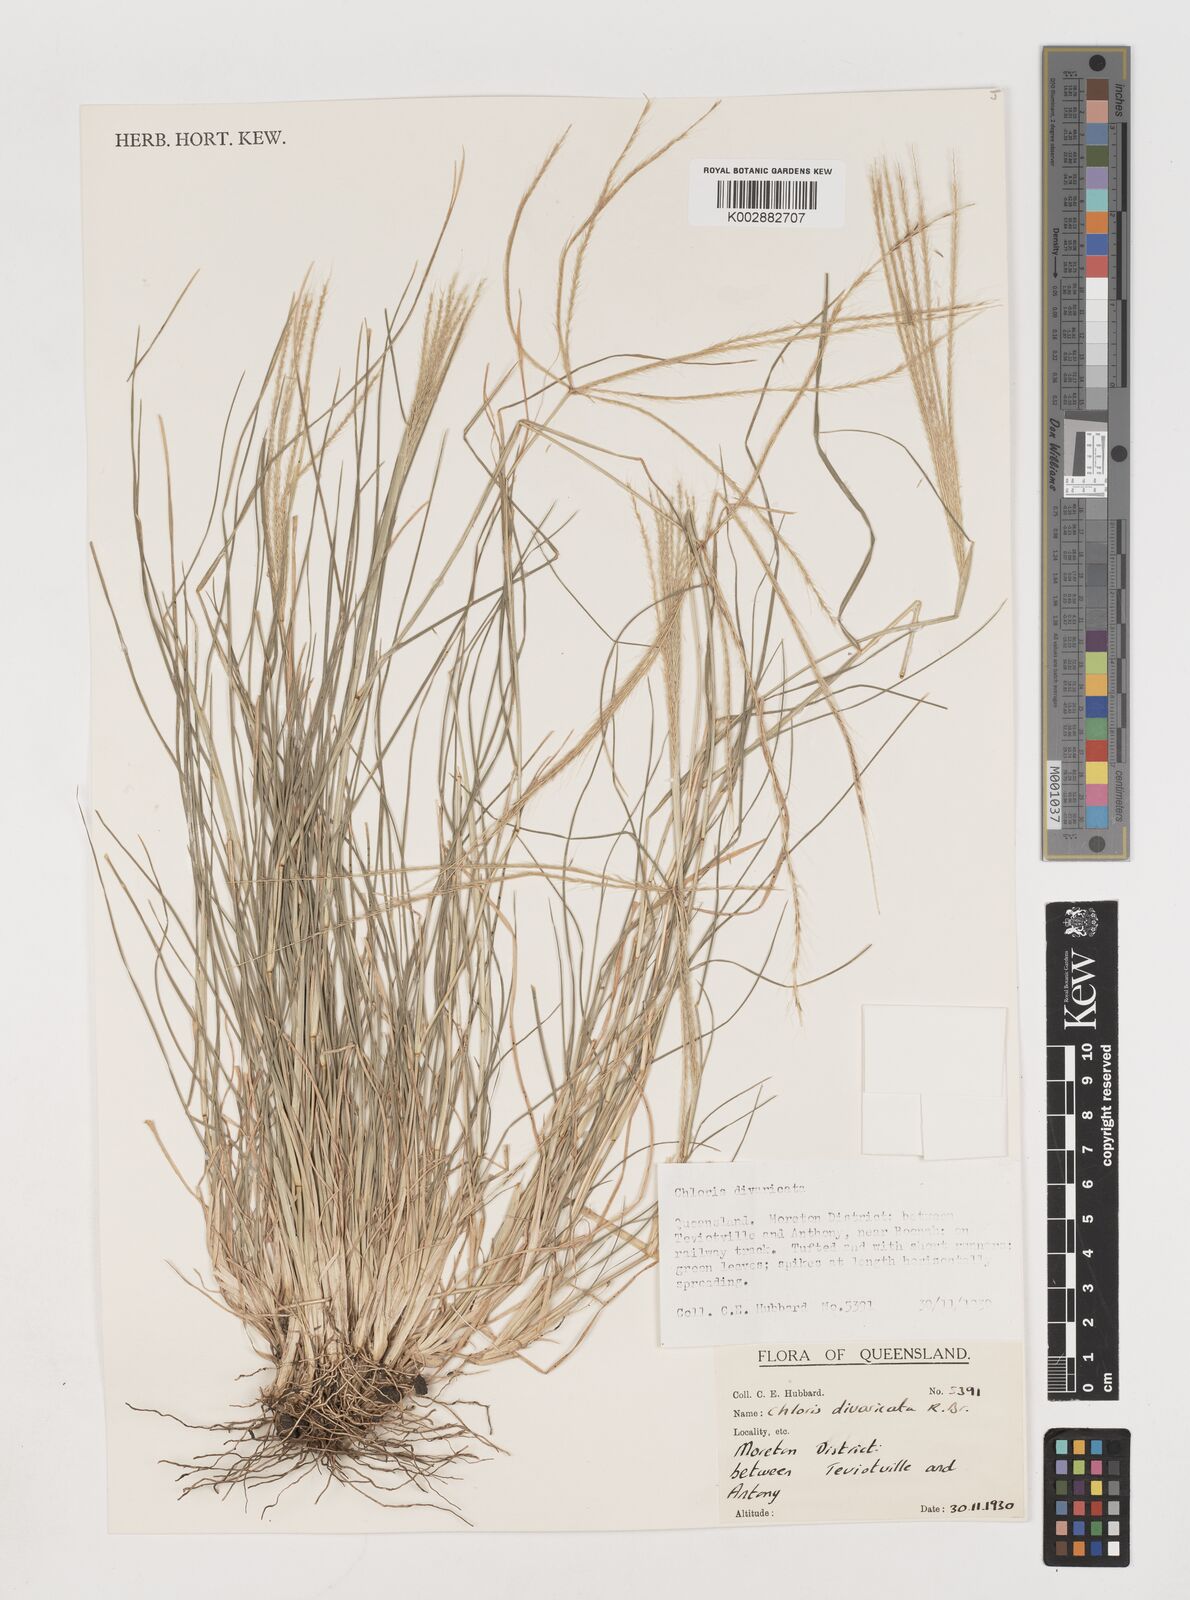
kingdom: Plantae
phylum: Tracheophyta
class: Liliopsida
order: Poales
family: Poaceae
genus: Chloris
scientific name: Chloris divaricata
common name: Spreading windmill grass
